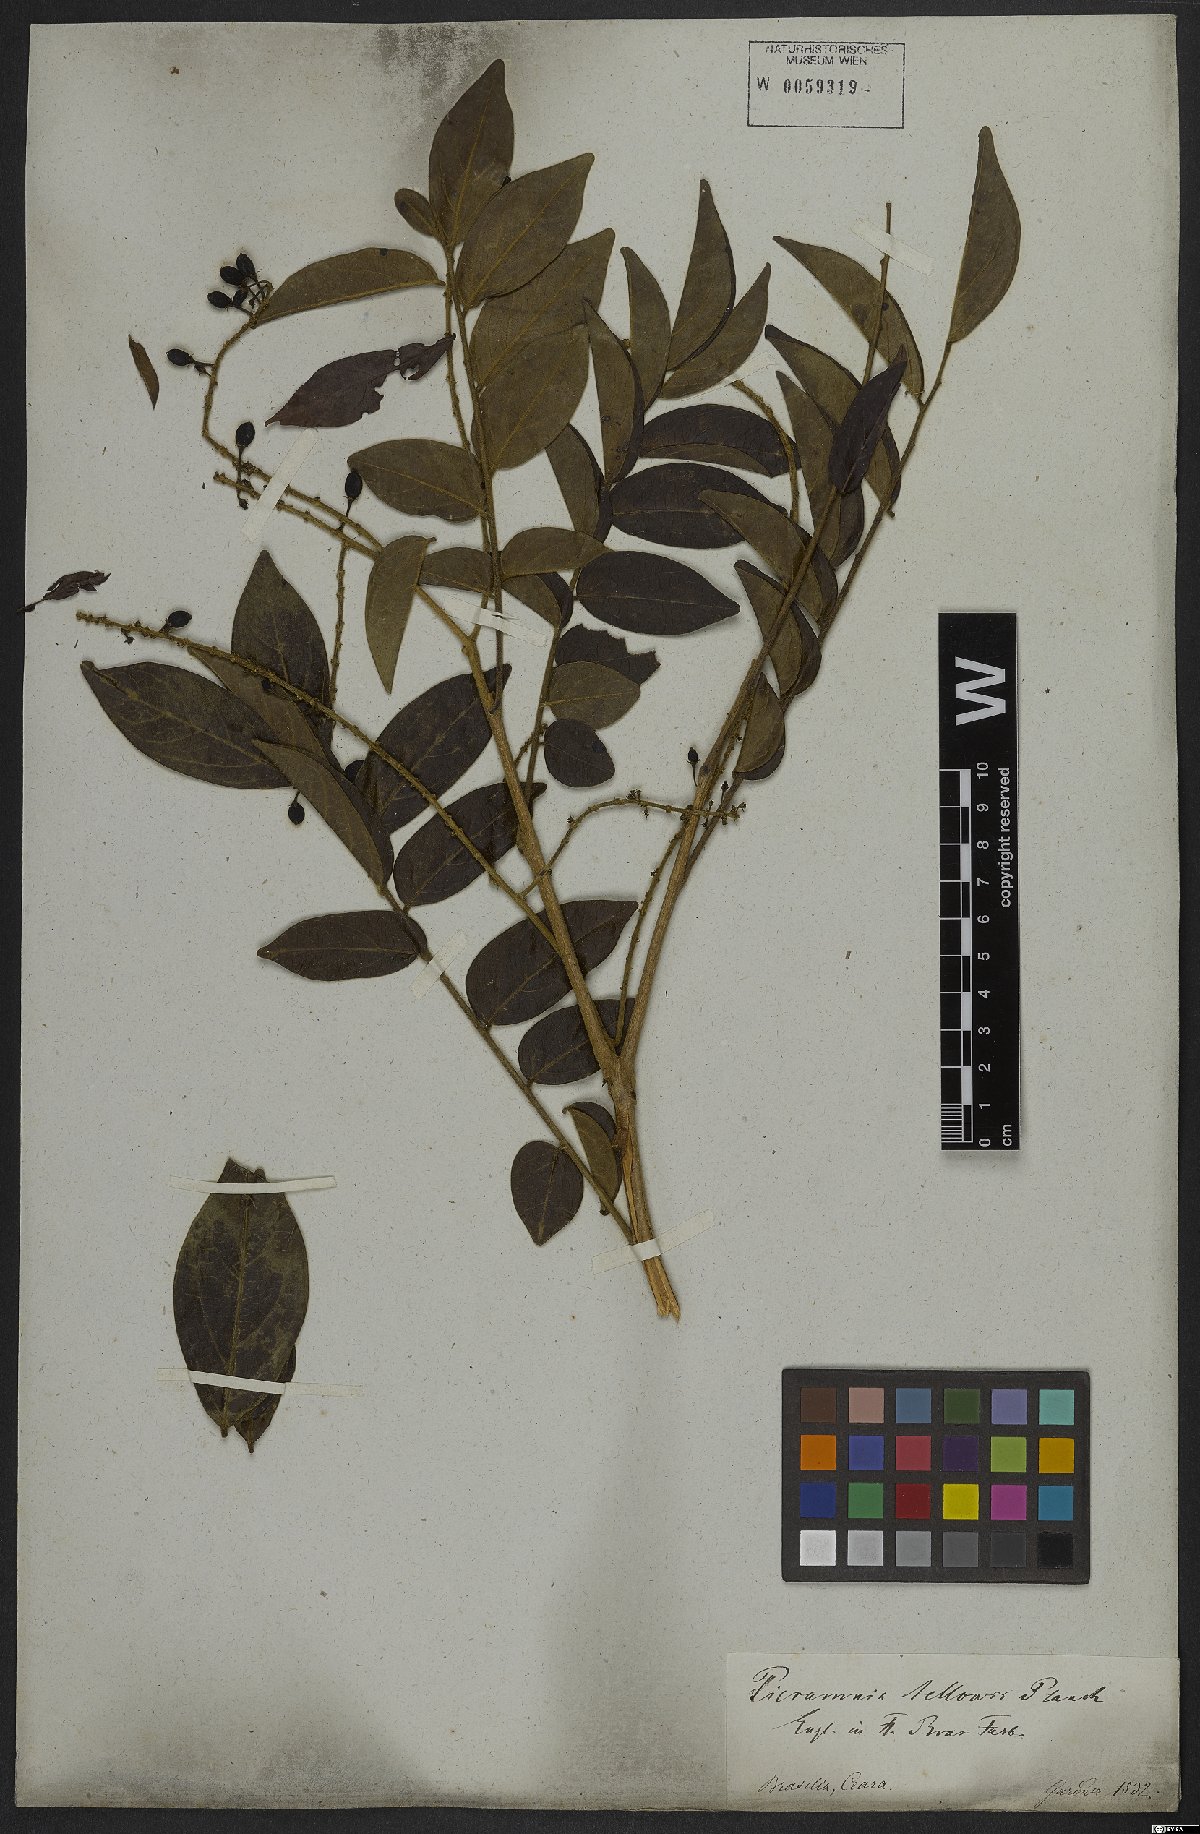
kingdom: Plantae
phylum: Tracheophyta
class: Magnoliopsida
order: Picramniales
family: Picramniaceae
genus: Picramnia
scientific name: Picramnia sellowii
